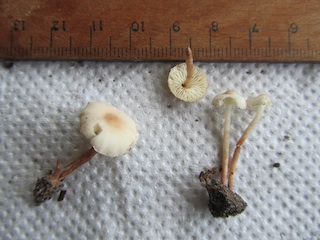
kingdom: Fungi
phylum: Basidiomycota
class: Agaricomycetes
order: Agaricales
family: Agaricaceae
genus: Cystolepiota
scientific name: Cystolepiota seminuda
